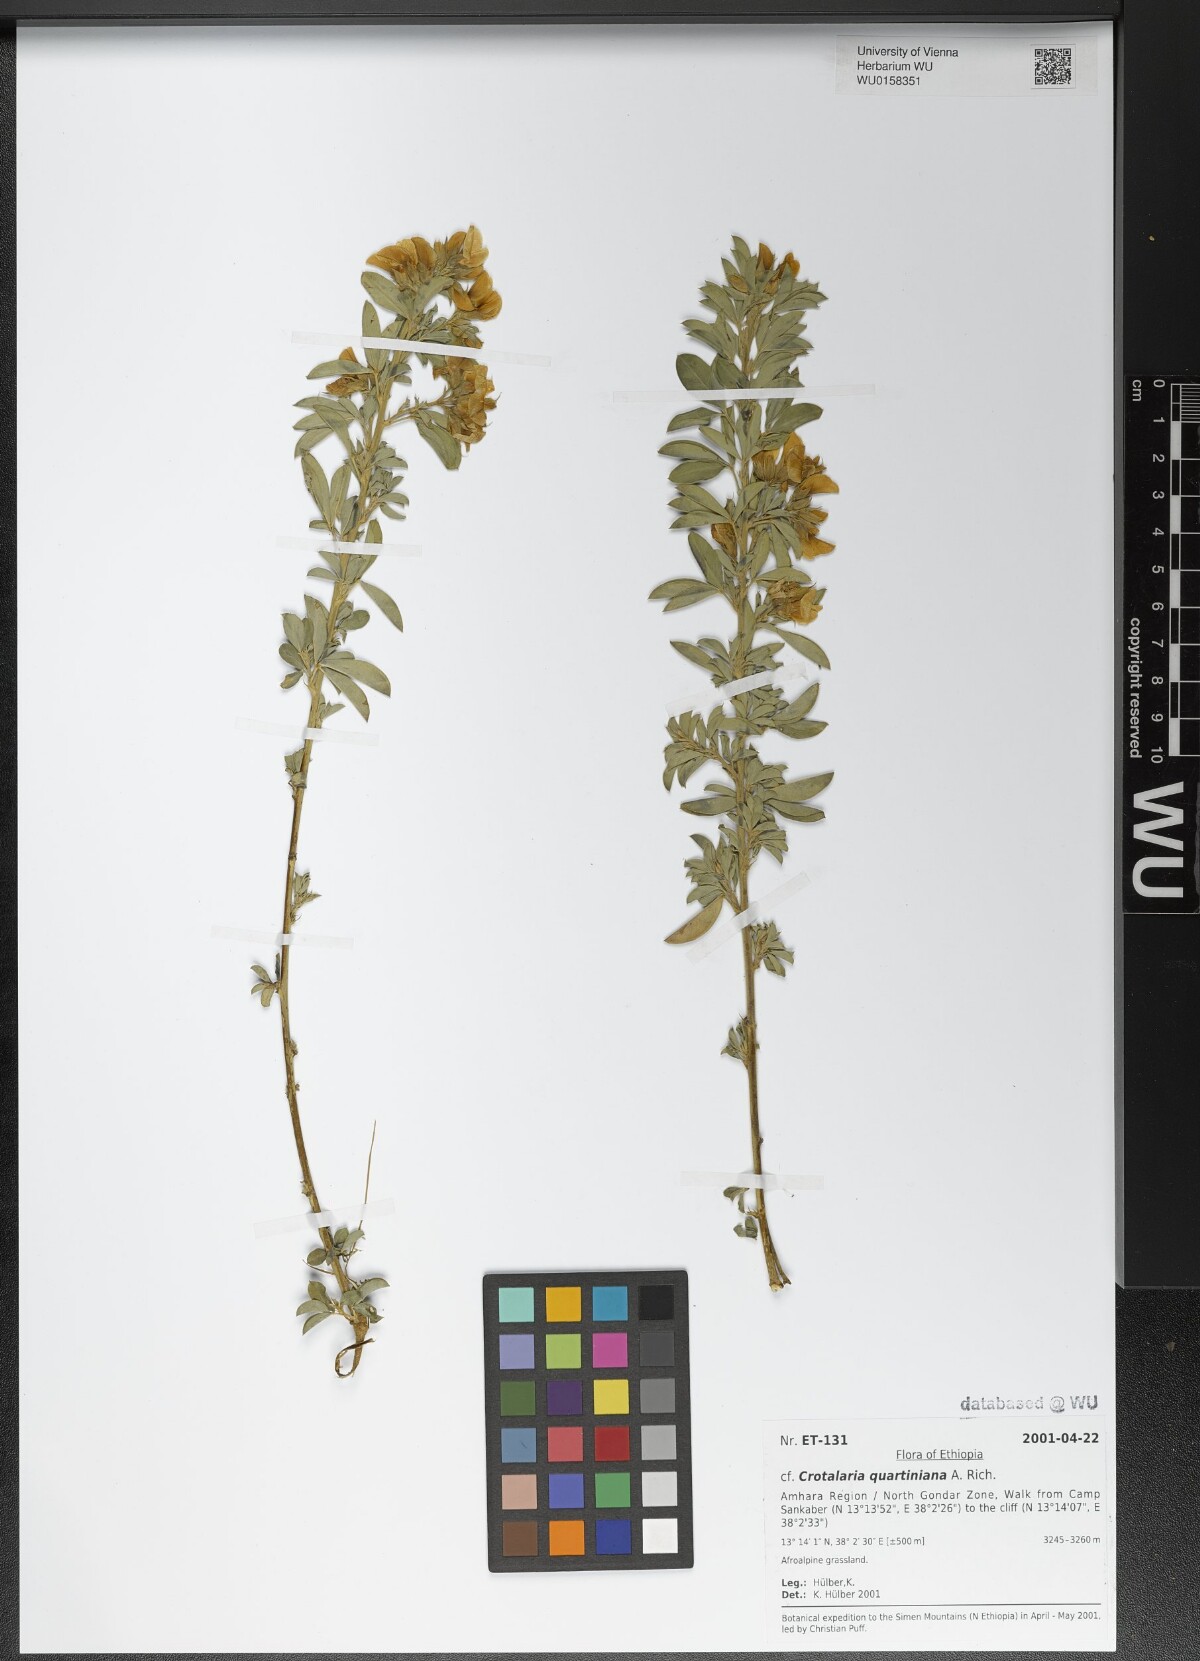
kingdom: Plantae
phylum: Tracheophyta
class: Magnoliopsida
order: Fabales
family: Fabaceae
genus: Crotalaria
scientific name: Crotalaria quartiniana
